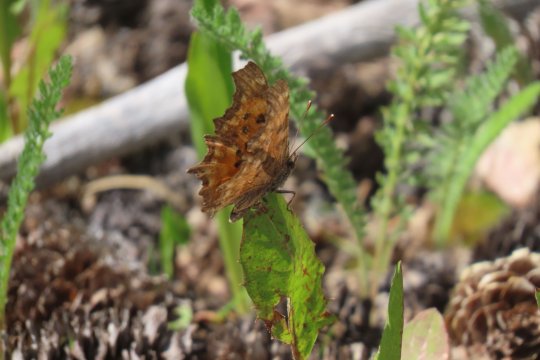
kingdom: Animalia
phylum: Arthropoda
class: Insecta
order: Lepidoptera
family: Nymphalidae
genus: Polygonia
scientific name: Polygonia gracilis
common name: Hoary Comma
